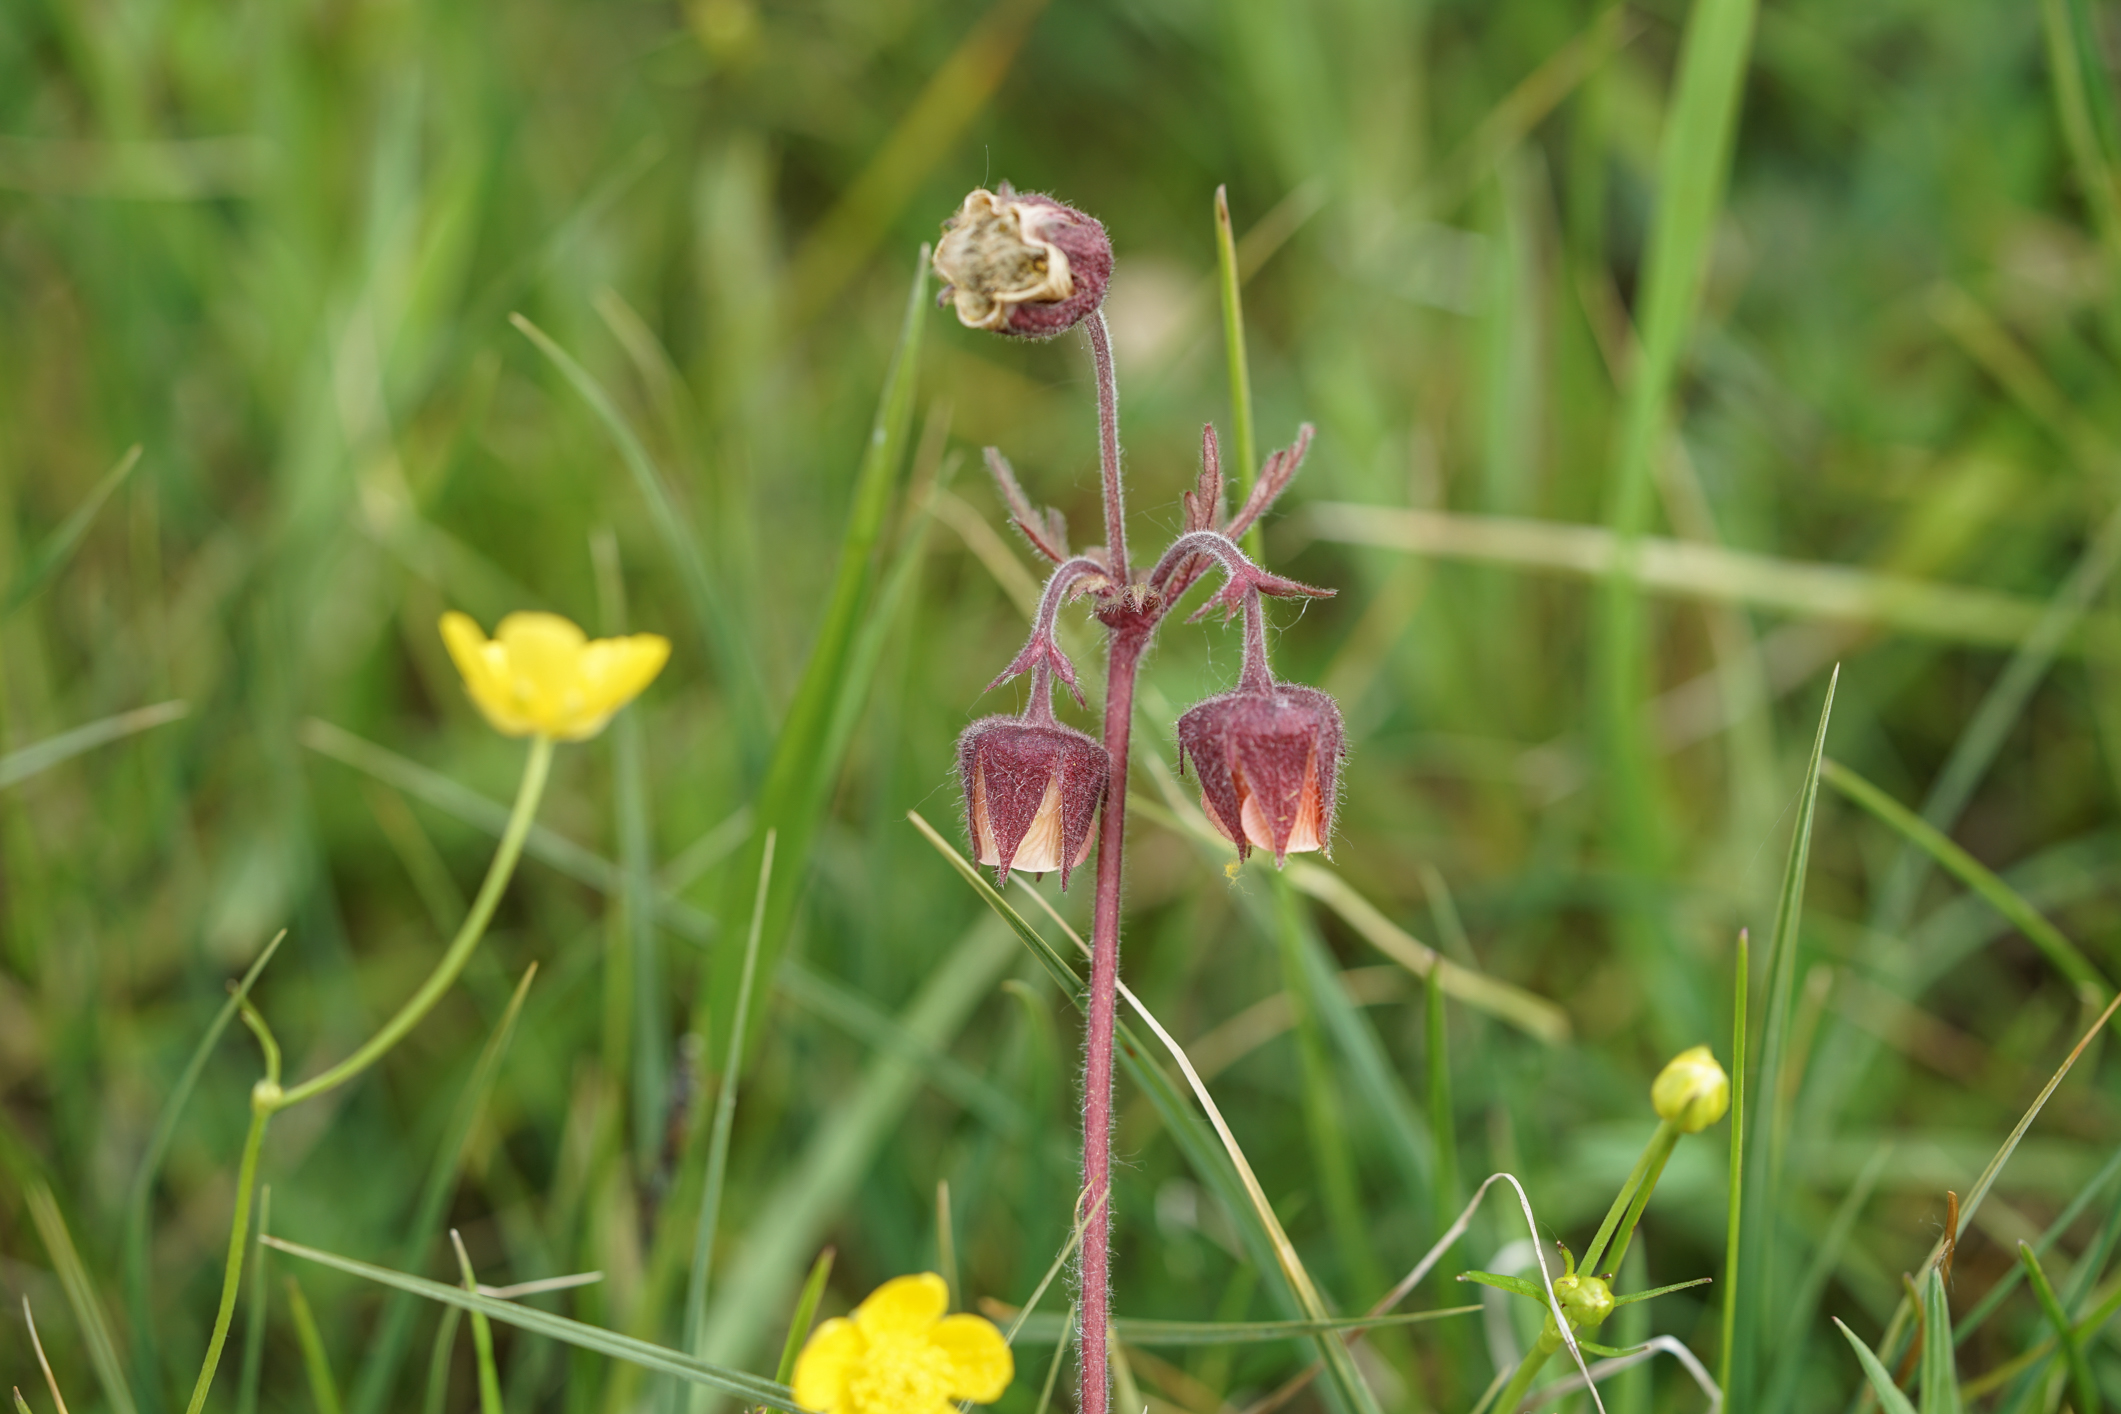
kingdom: Plantae
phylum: Tracheophyta
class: Magnoliopsida
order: Rosales
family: Rosaceae
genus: Geum
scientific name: Geum rivale
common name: Water avens
